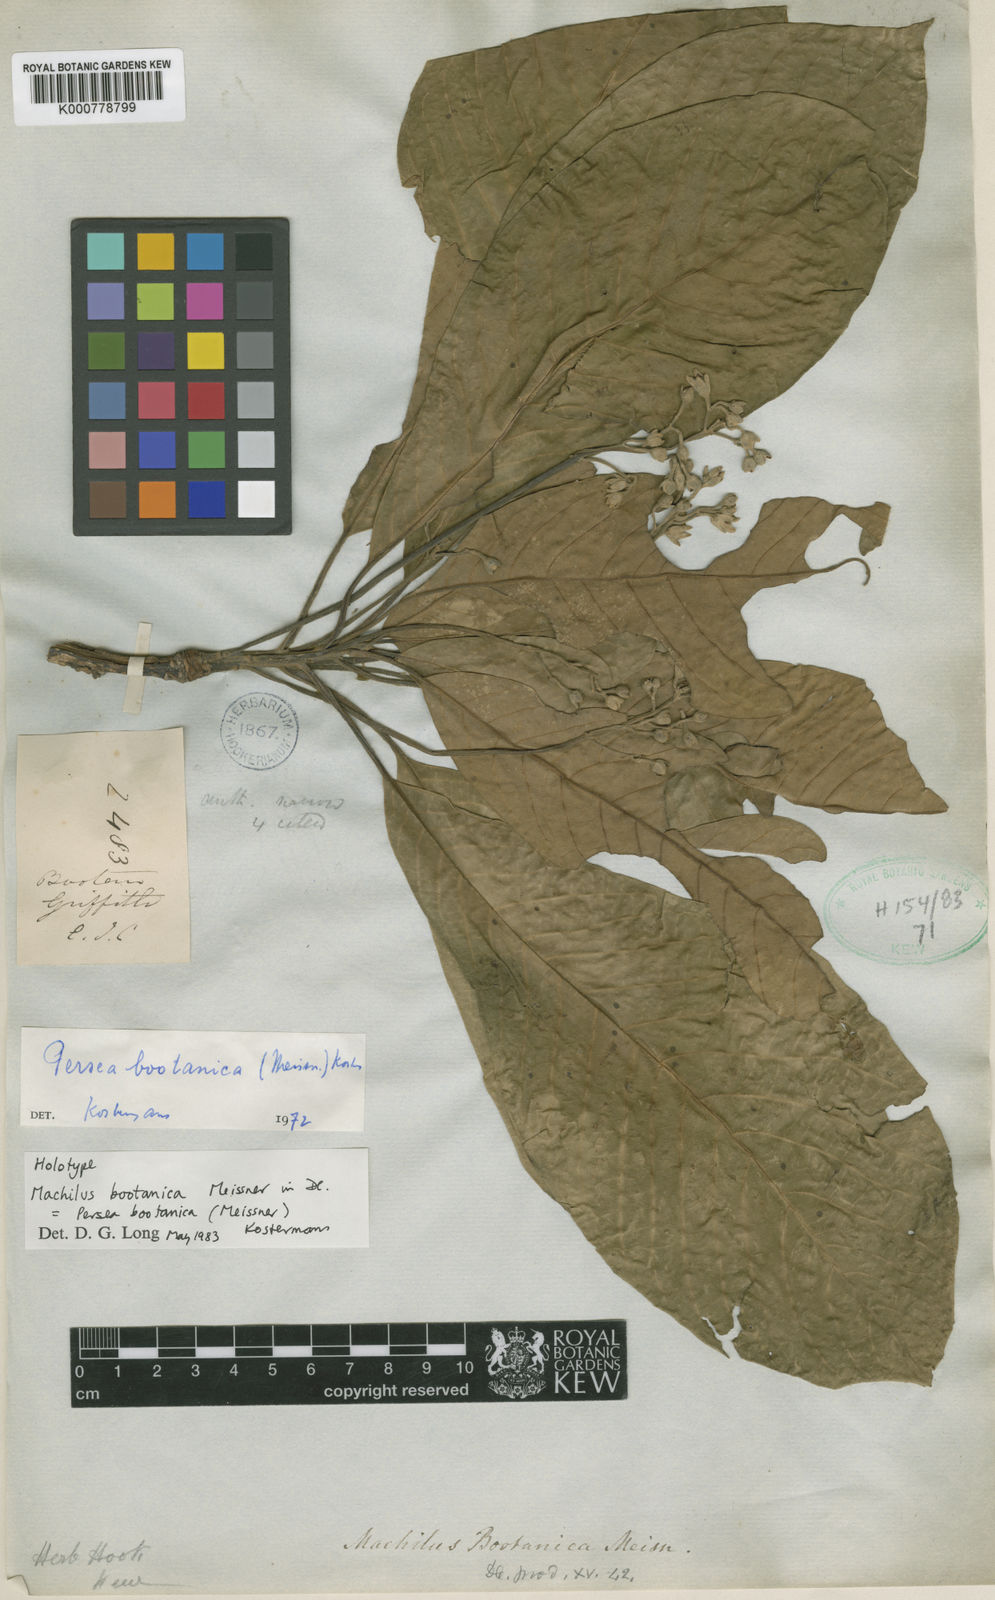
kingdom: Plantae
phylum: Tracheophyta
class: Magnoliopsida
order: Laurales
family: Lauraceae
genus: Phoebe
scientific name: Phoebe bootanica
